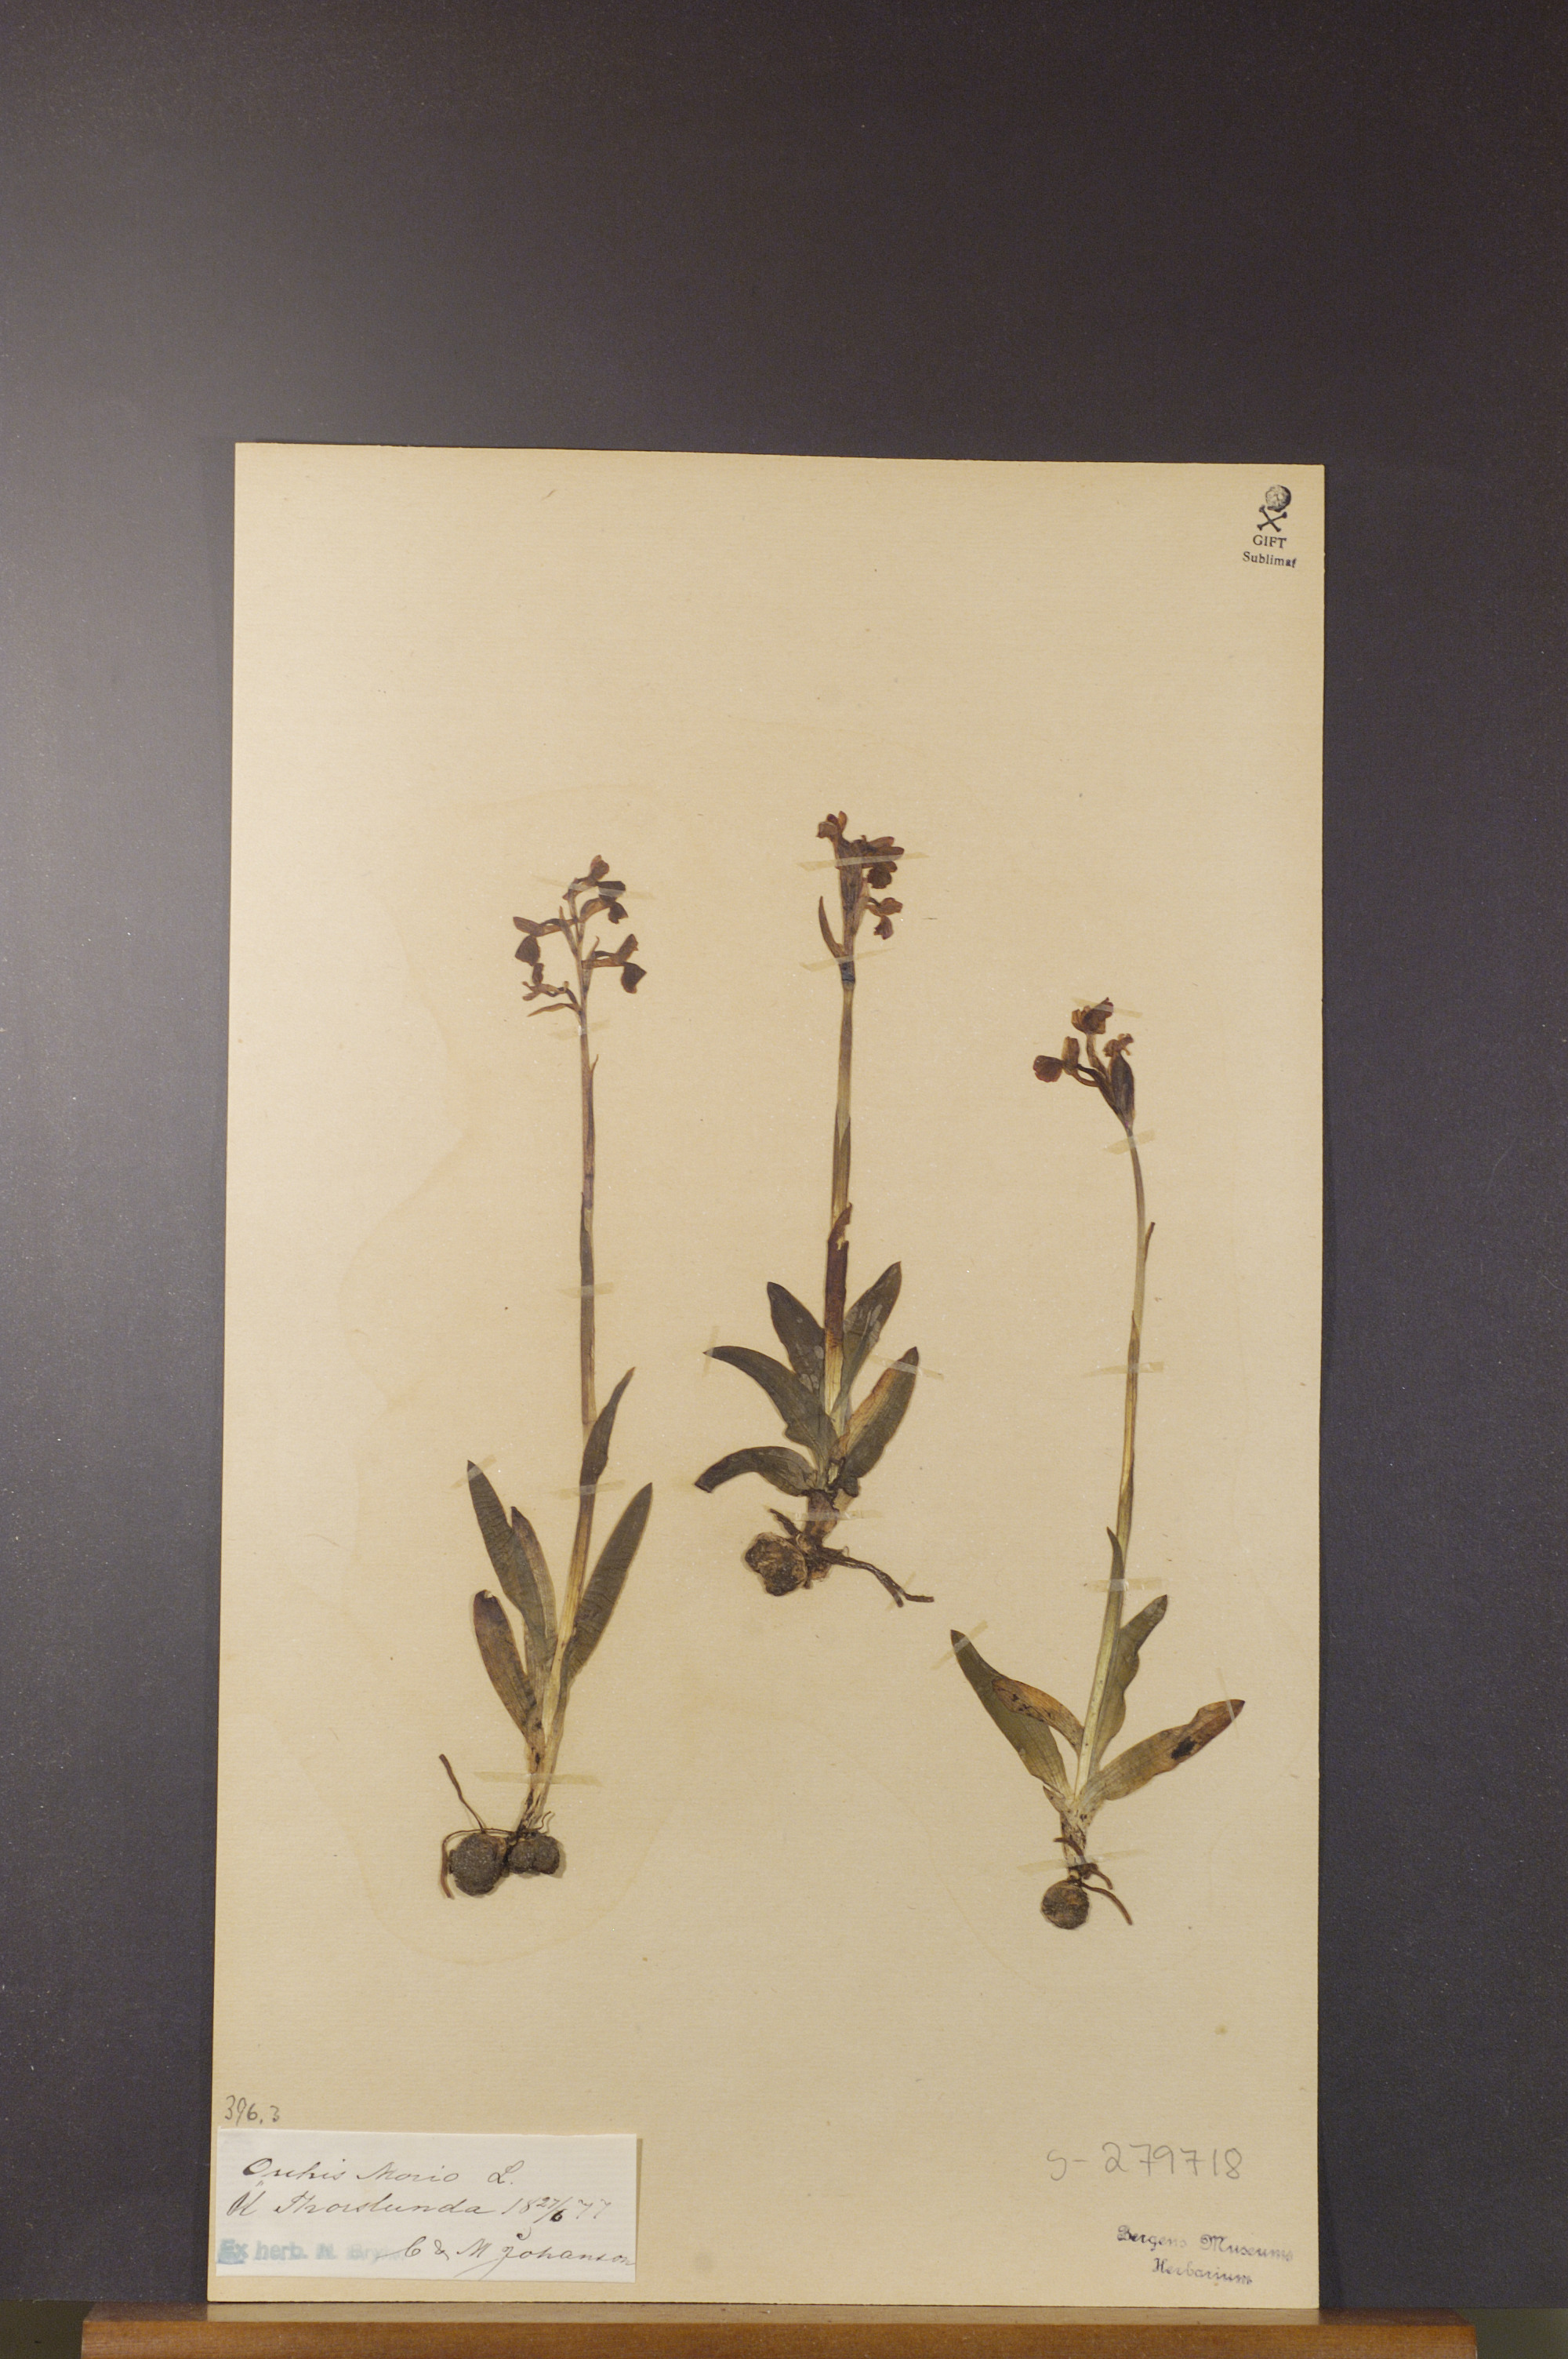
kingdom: Plantae
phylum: Tracheophyta
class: Liliopsida
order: Asparagales
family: Orchidaceae
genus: Anacamptis
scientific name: Anacamptis morio
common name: Green-winged orchid
